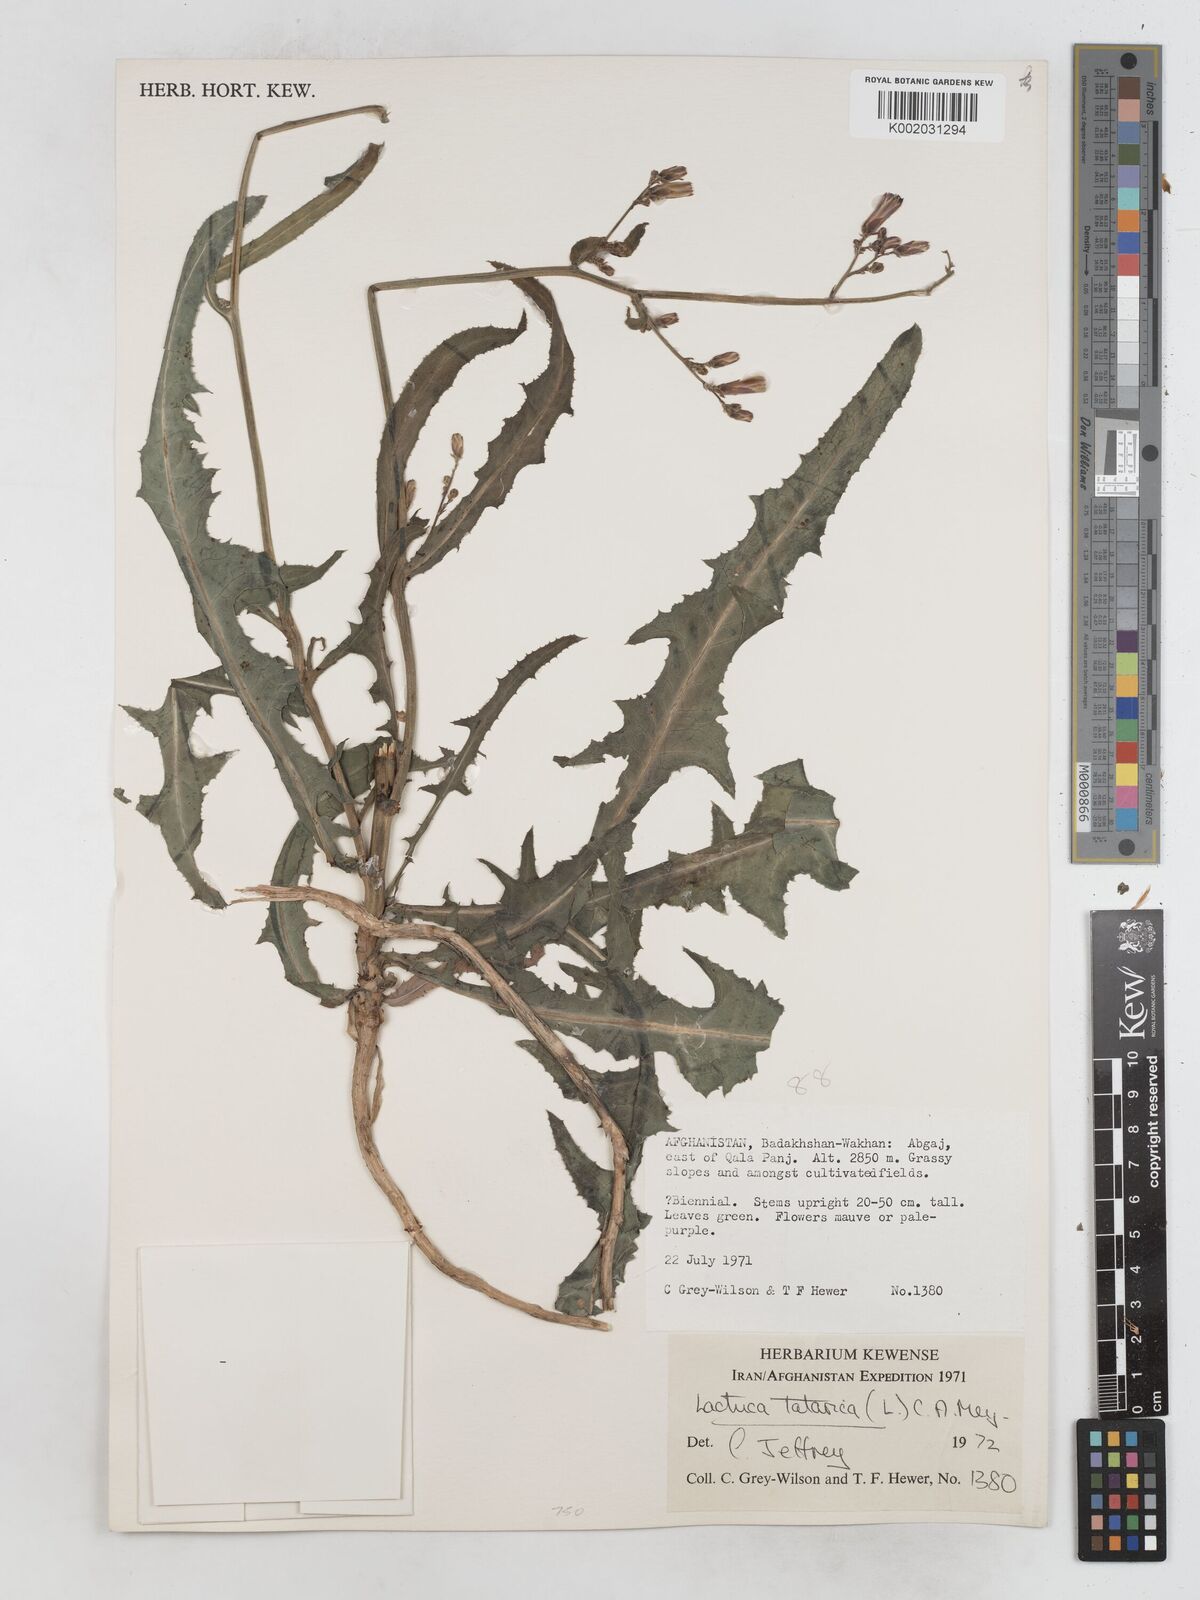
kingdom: Plantae
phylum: Tracheophyta
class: Magnoliopsida
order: Asterales
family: Asteraceae
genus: Lactuca
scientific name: Lactuca tatarica
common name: Blue lettuce
